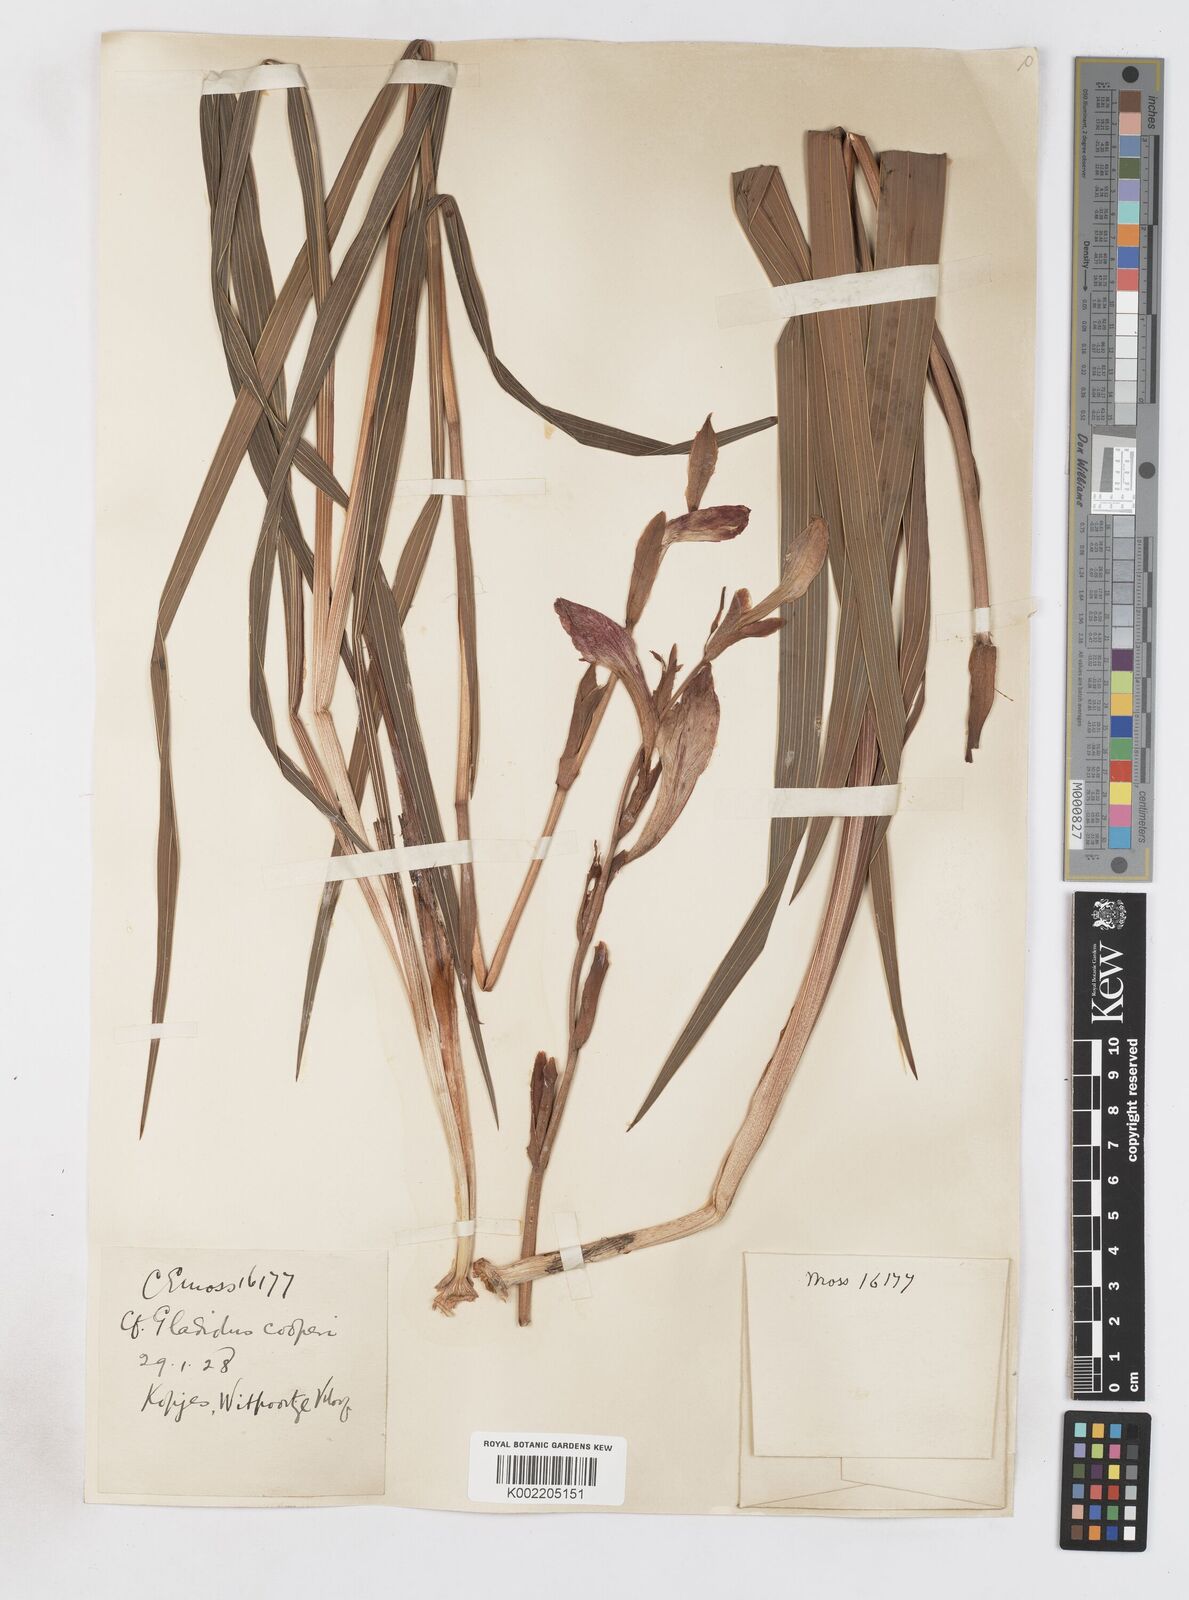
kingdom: Plantae
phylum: Tracheophyta
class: Liliopsida
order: Asparagales
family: Iridaceae
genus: Gladiolus
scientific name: Gladiolus dalenii
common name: Cornflag
